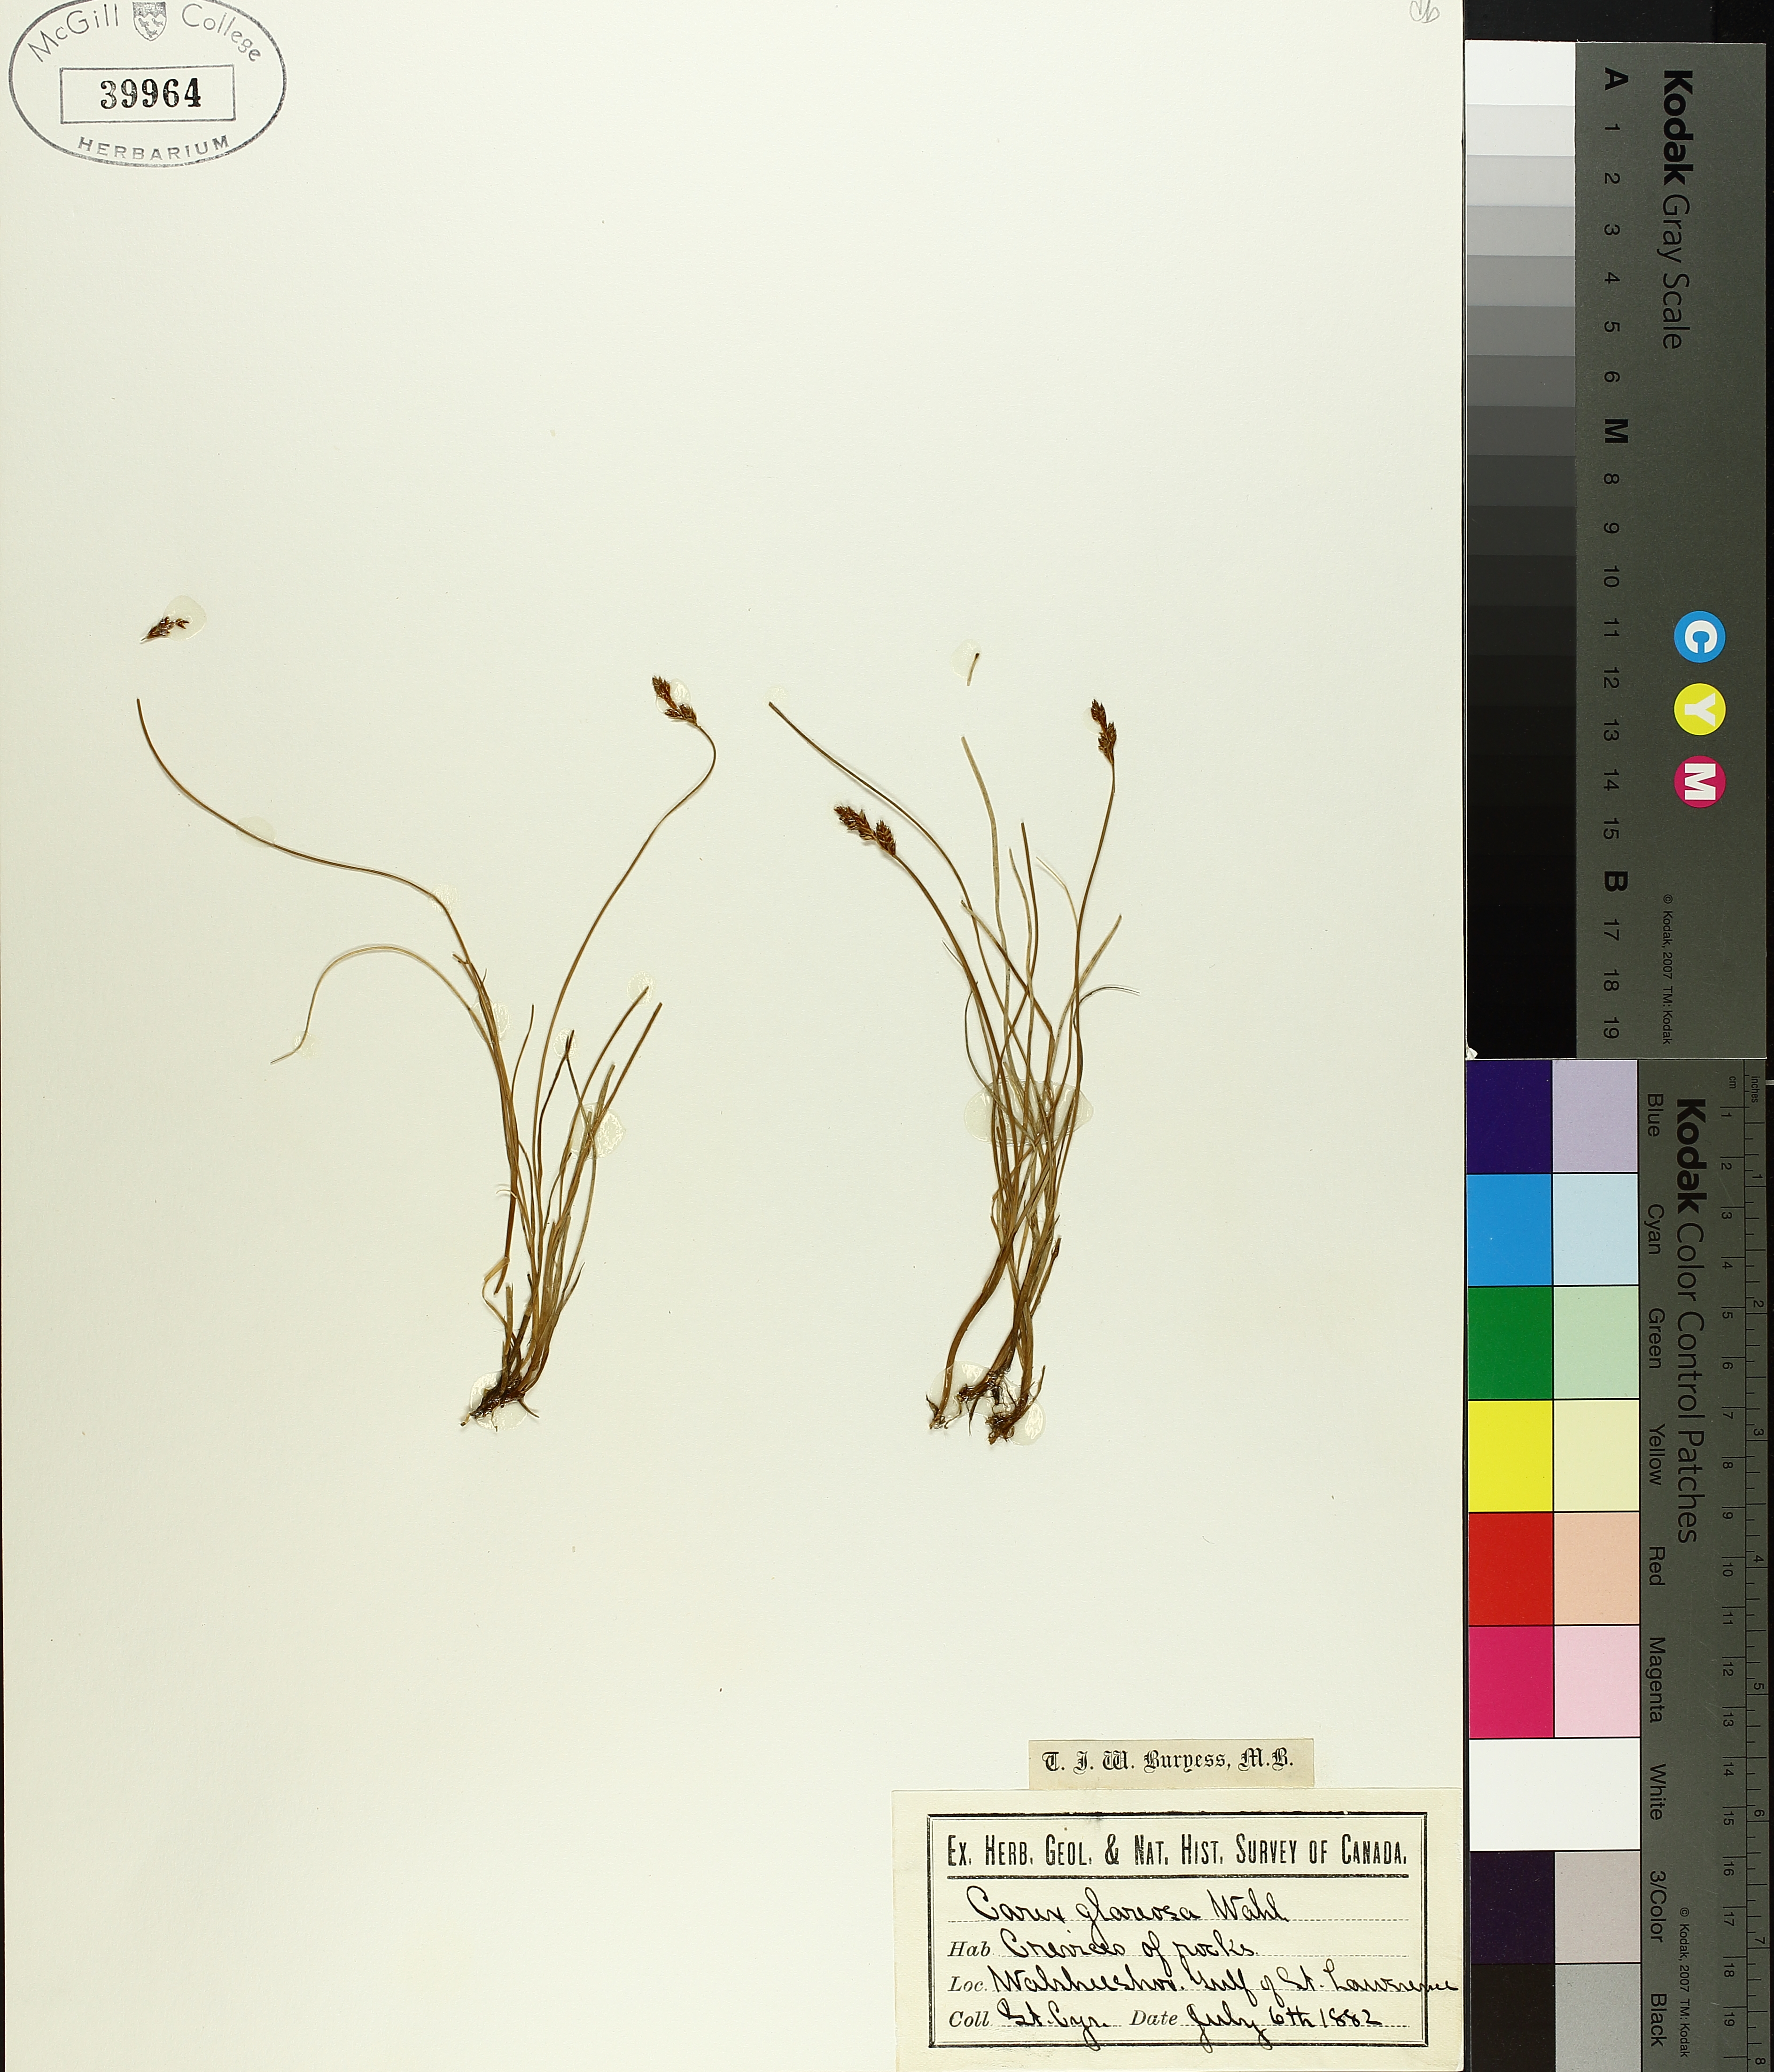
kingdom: Plantae
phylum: Tracheophyta
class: Liliopsida
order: Poales
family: Cyperaceae
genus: Carex
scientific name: Carex glareosa
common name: Clustered sedge
